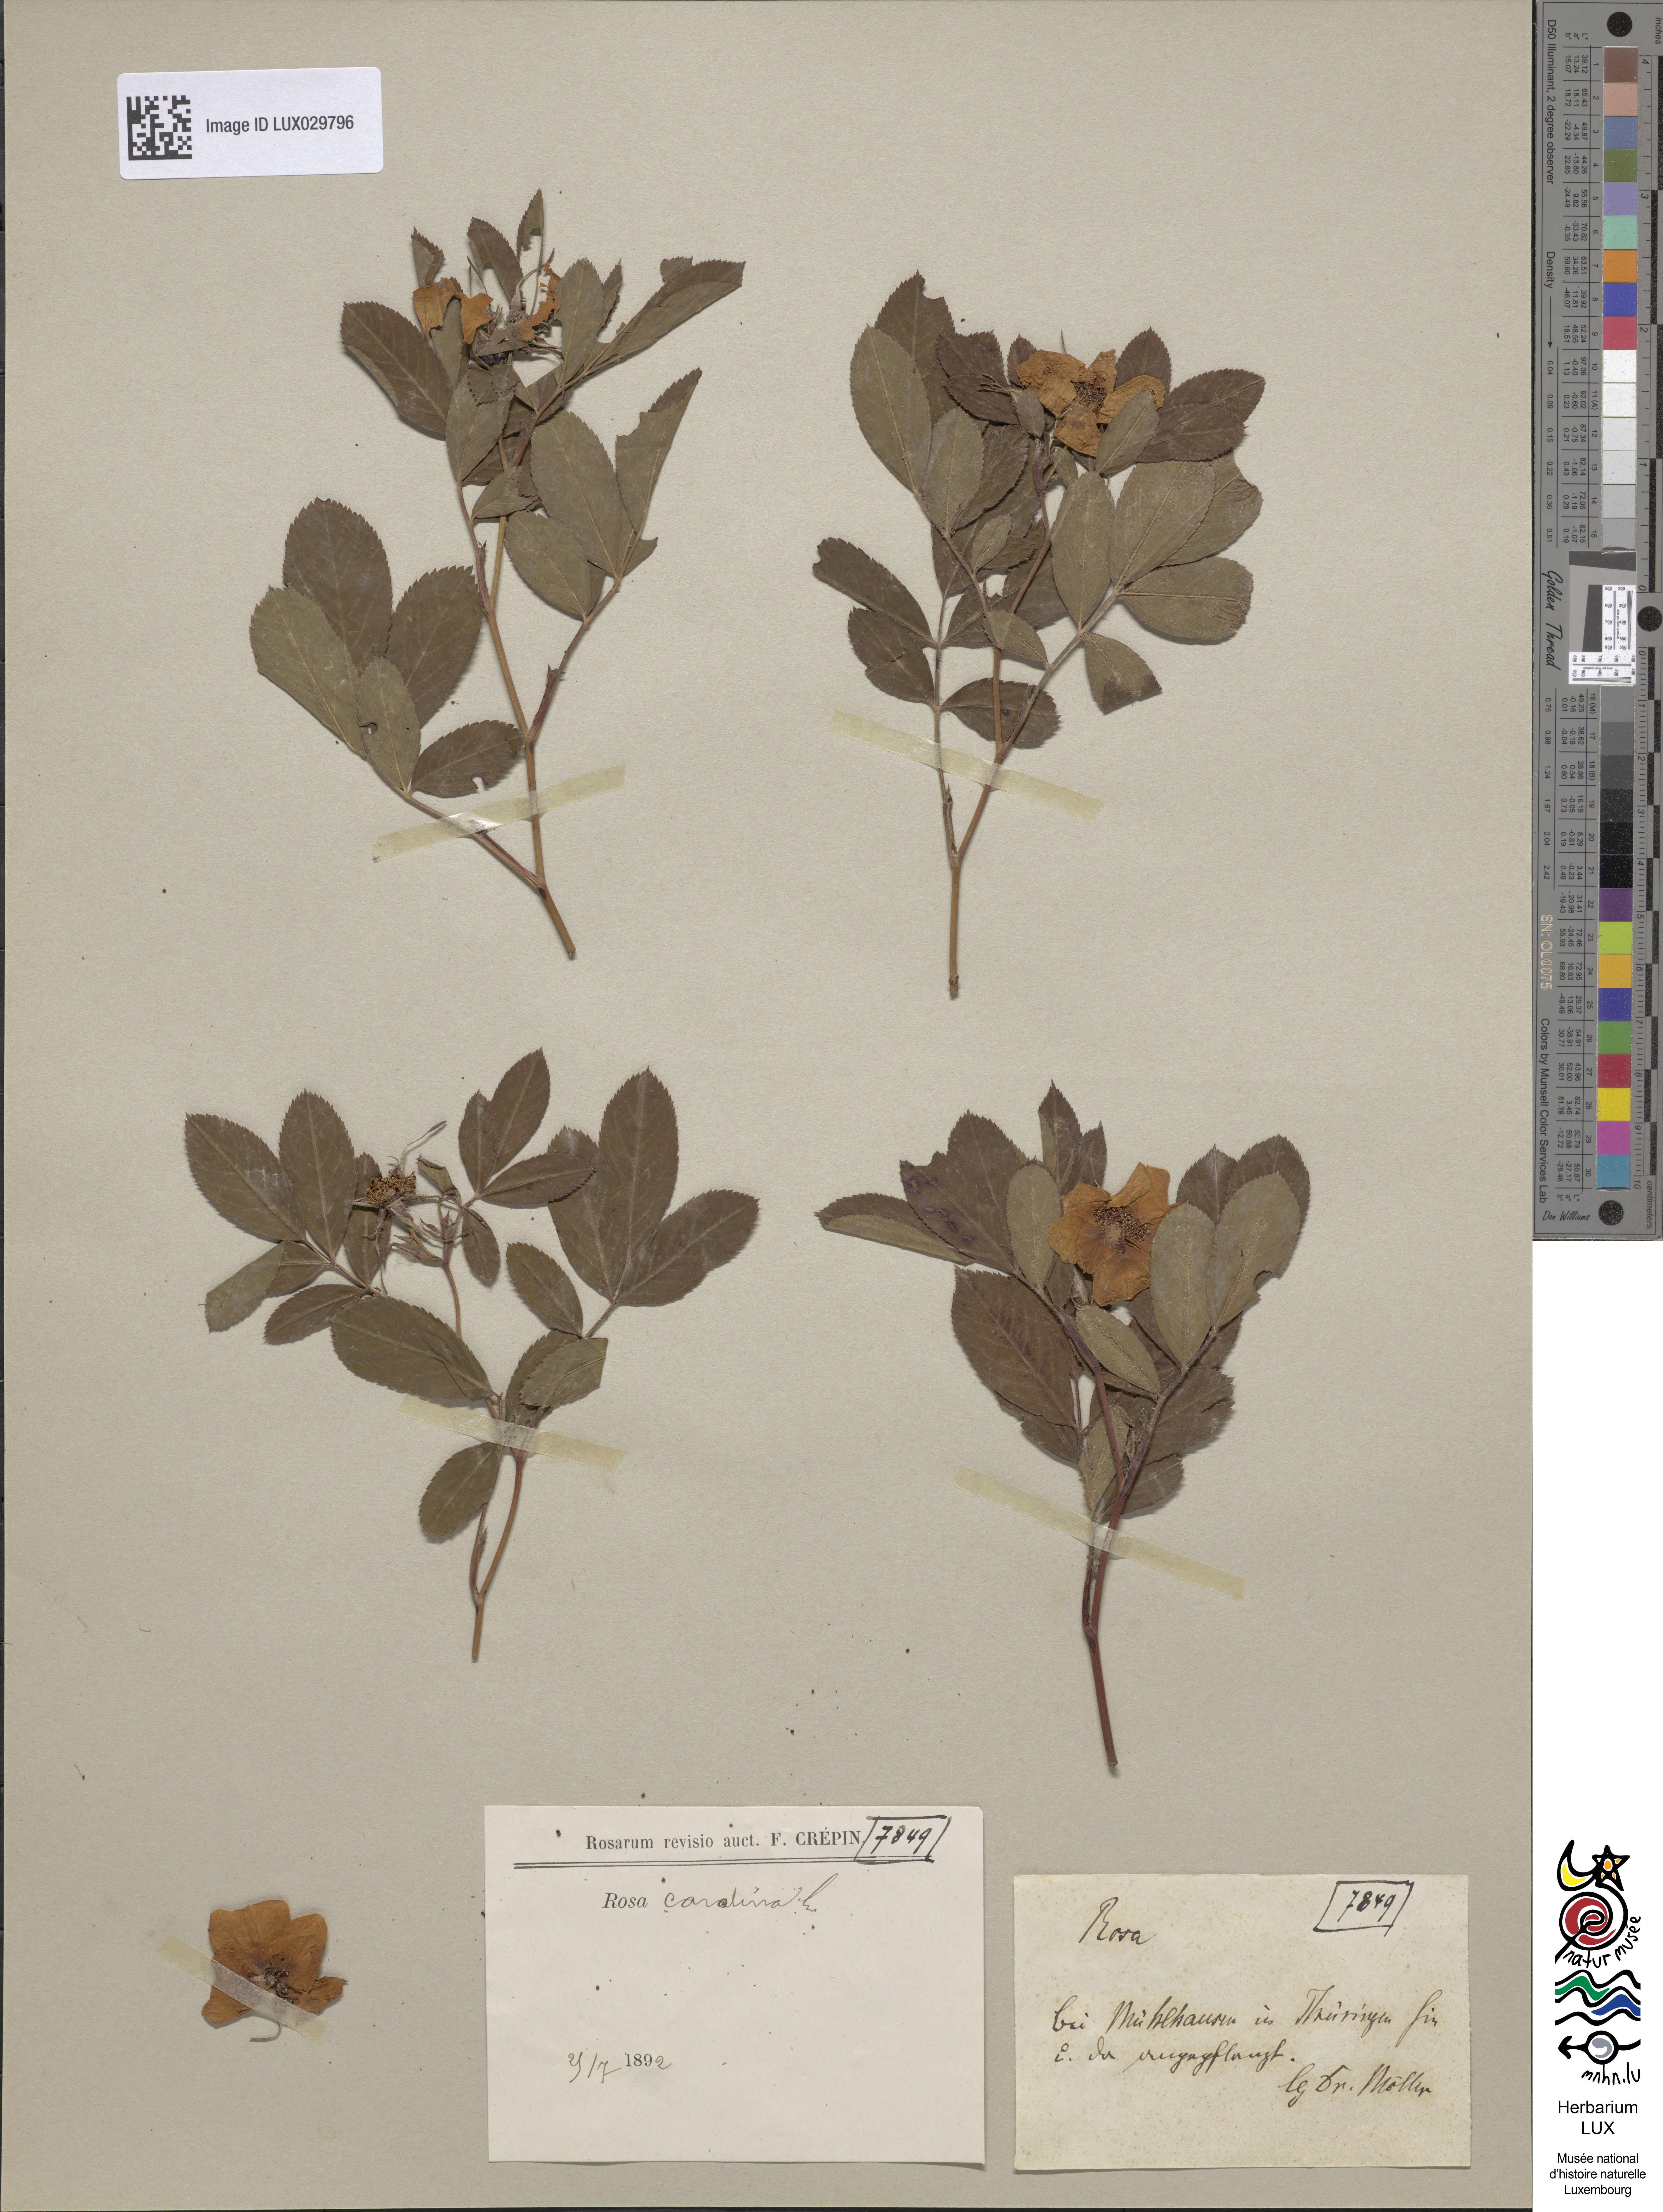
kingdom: Plantae
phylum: Tracheophyta
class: Magnoliopsida
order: Rosales
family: Rosaceae
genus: Rosa
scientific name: Rosa carolina
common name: Pasture rose
